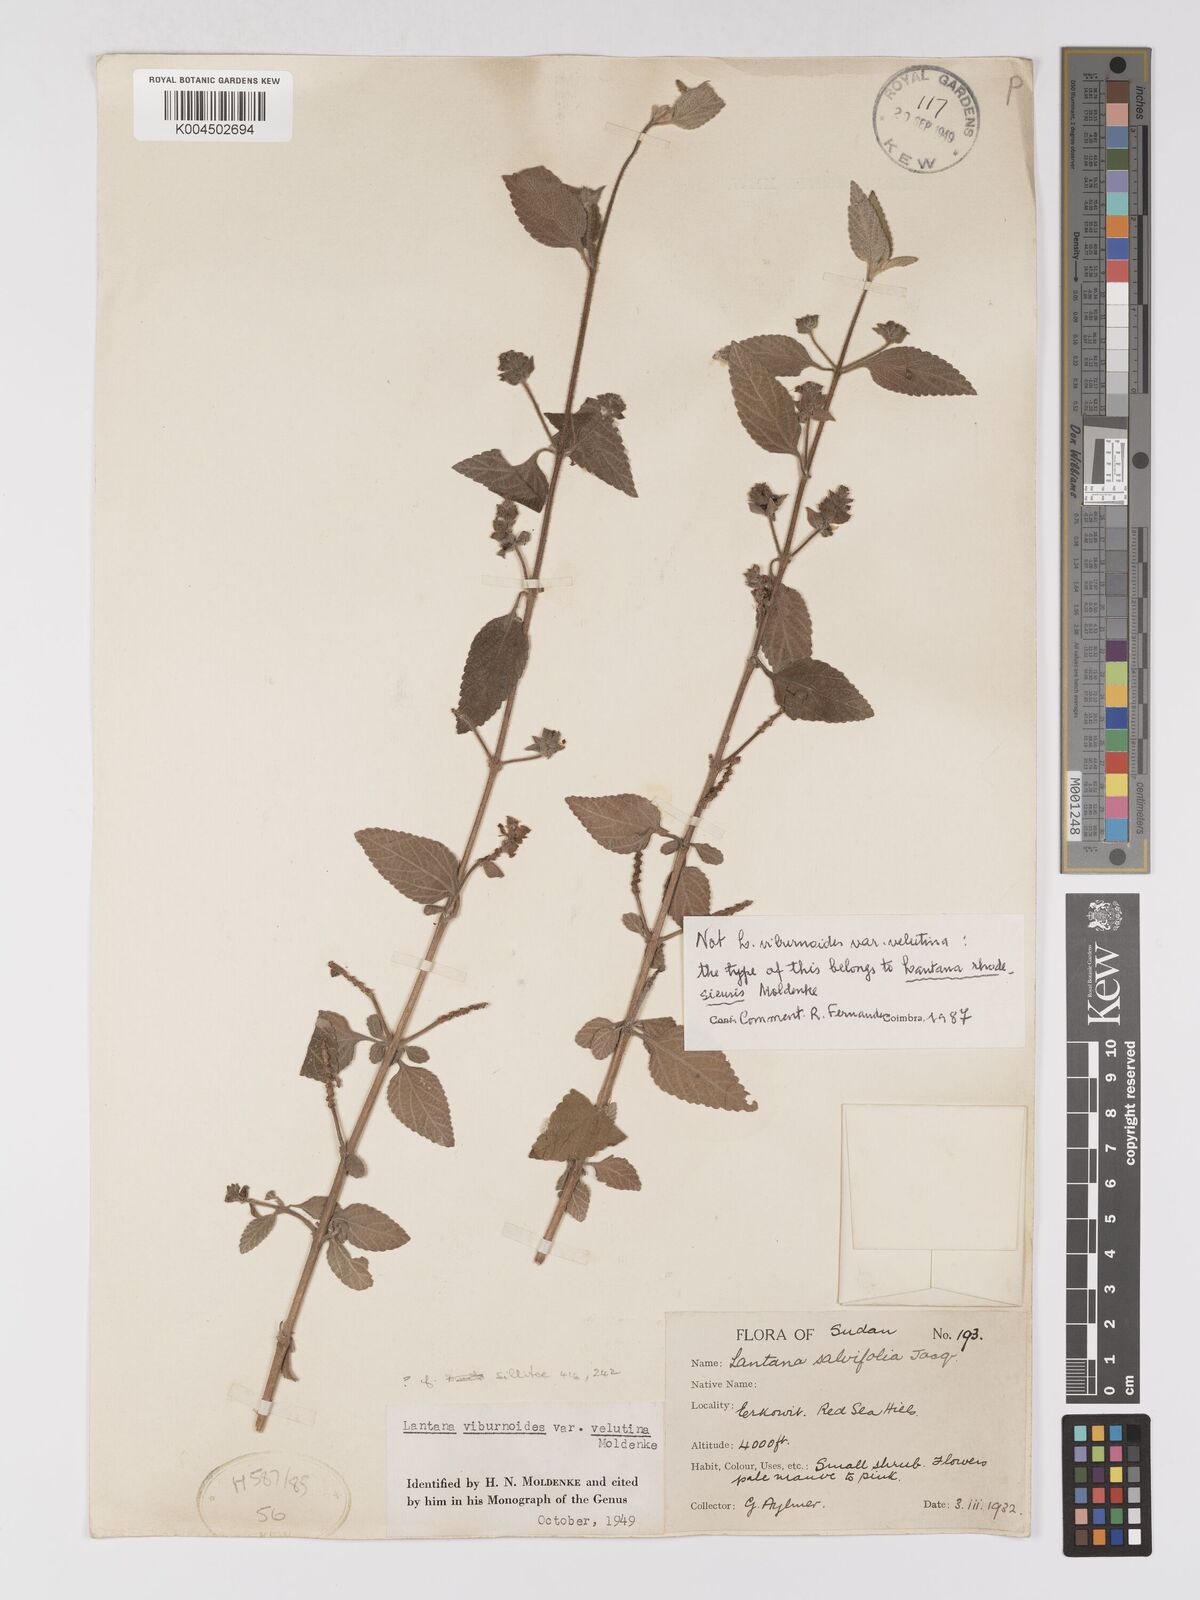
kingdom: Plantae
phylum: Tracheophyta
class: Magnoliopsida
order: Lamiales
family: Verbenaceae
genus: Lantana
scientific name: Lantana ukambensis
